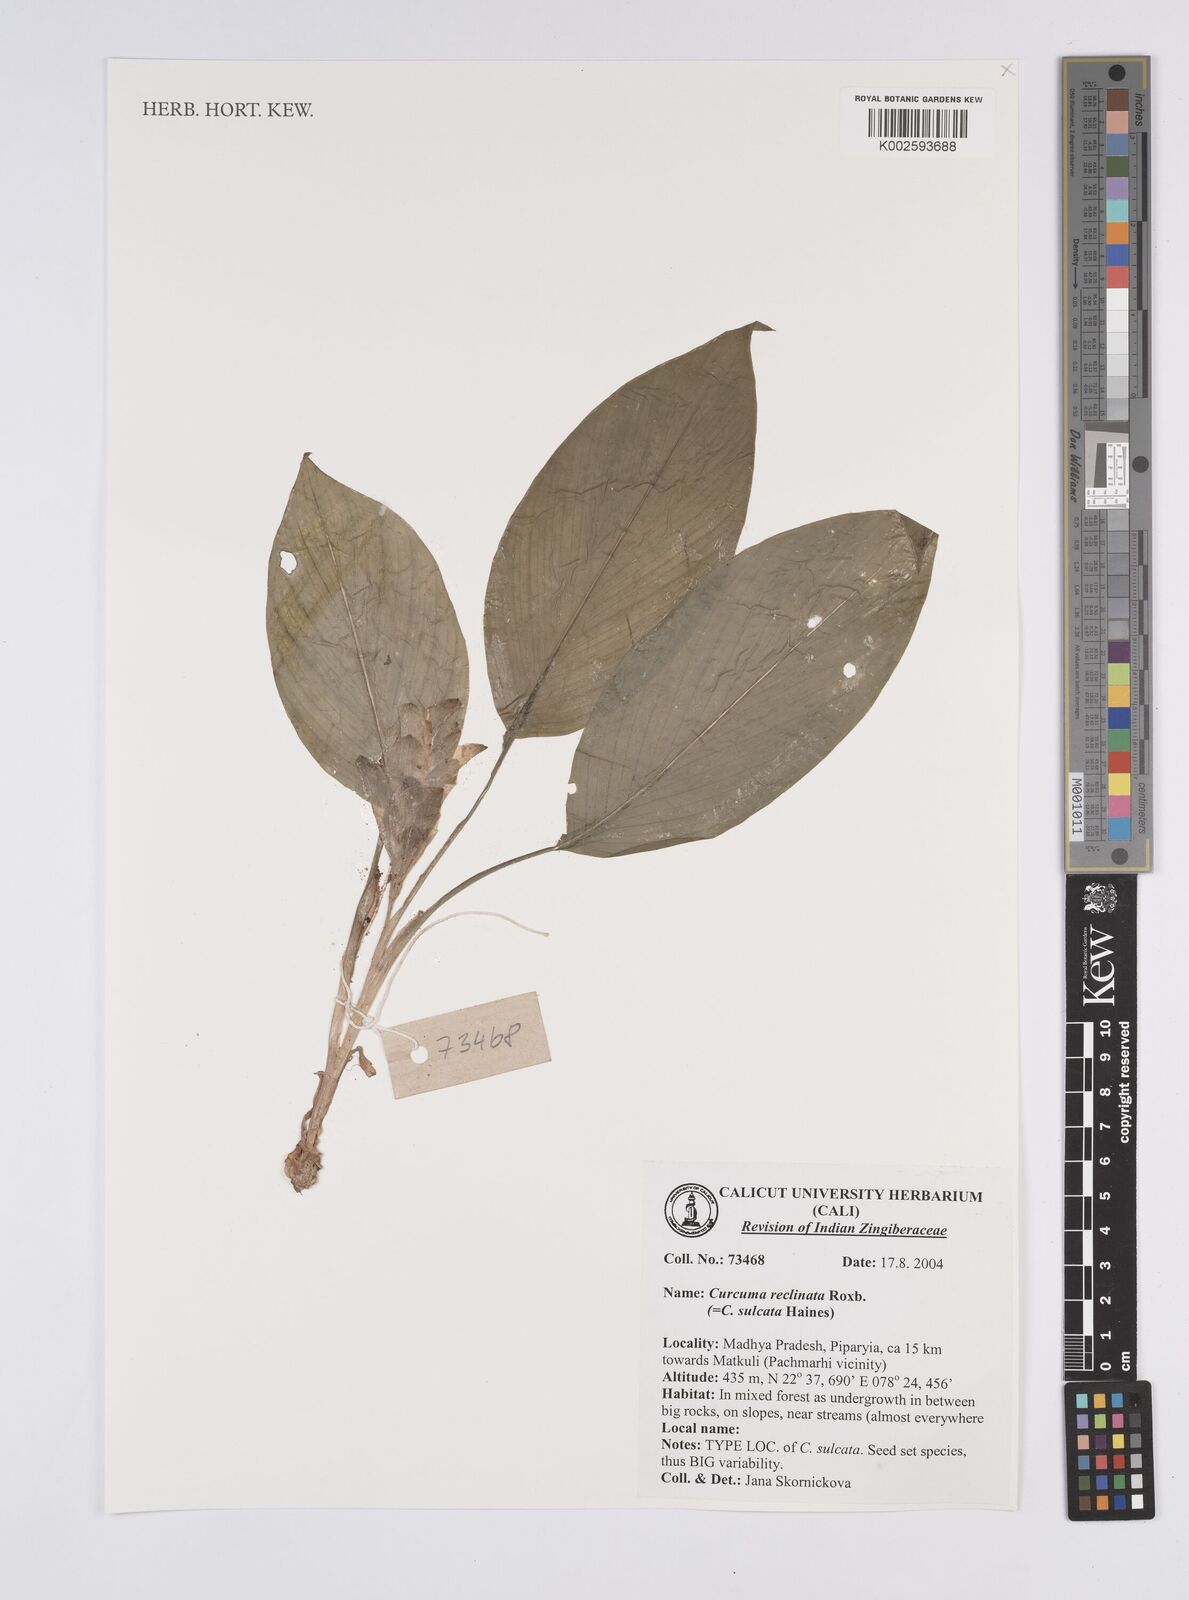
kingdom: Plantae
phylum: Tracheophyta
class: Liliopsida
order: Zingiberales
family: Zingiberaceae
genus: Curcuma
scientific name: Curcuma reclinata
